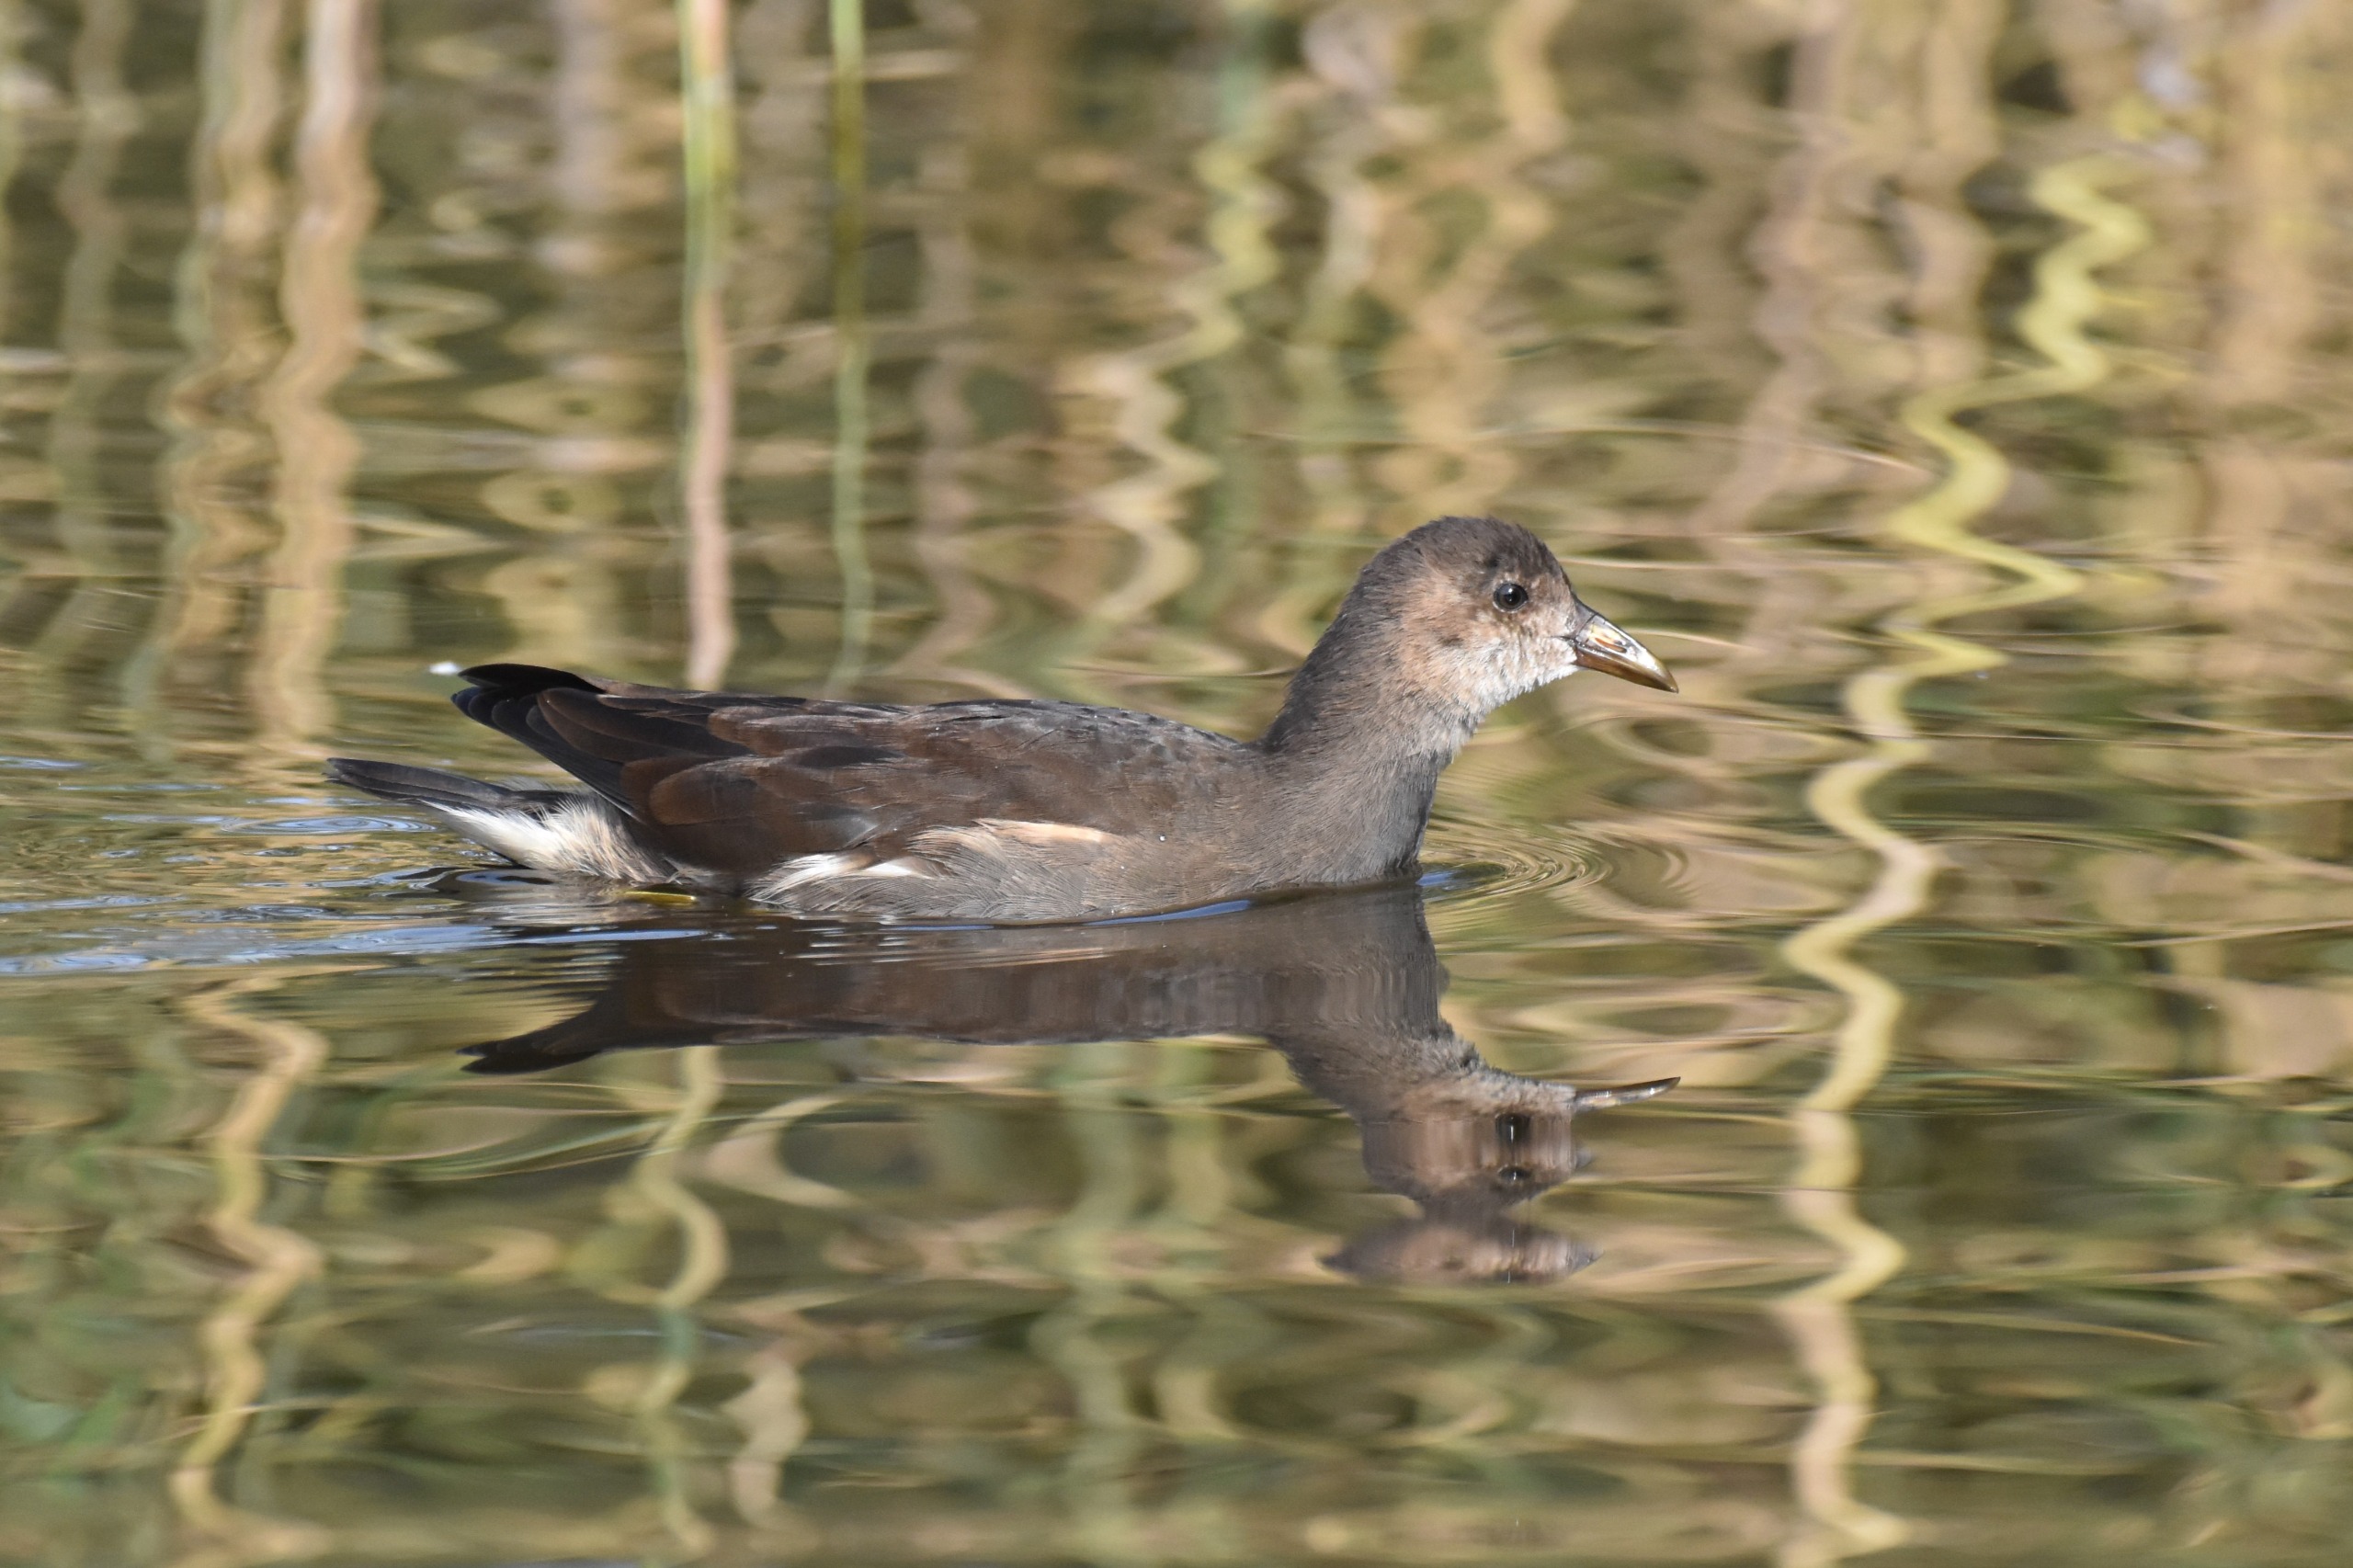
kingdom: Animalia
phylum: Chordata
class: Aves
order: Gruiformes
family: Rallidae
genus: Gallinula
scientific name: Gallinula chloropus
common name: Grønbenet rørhøne
